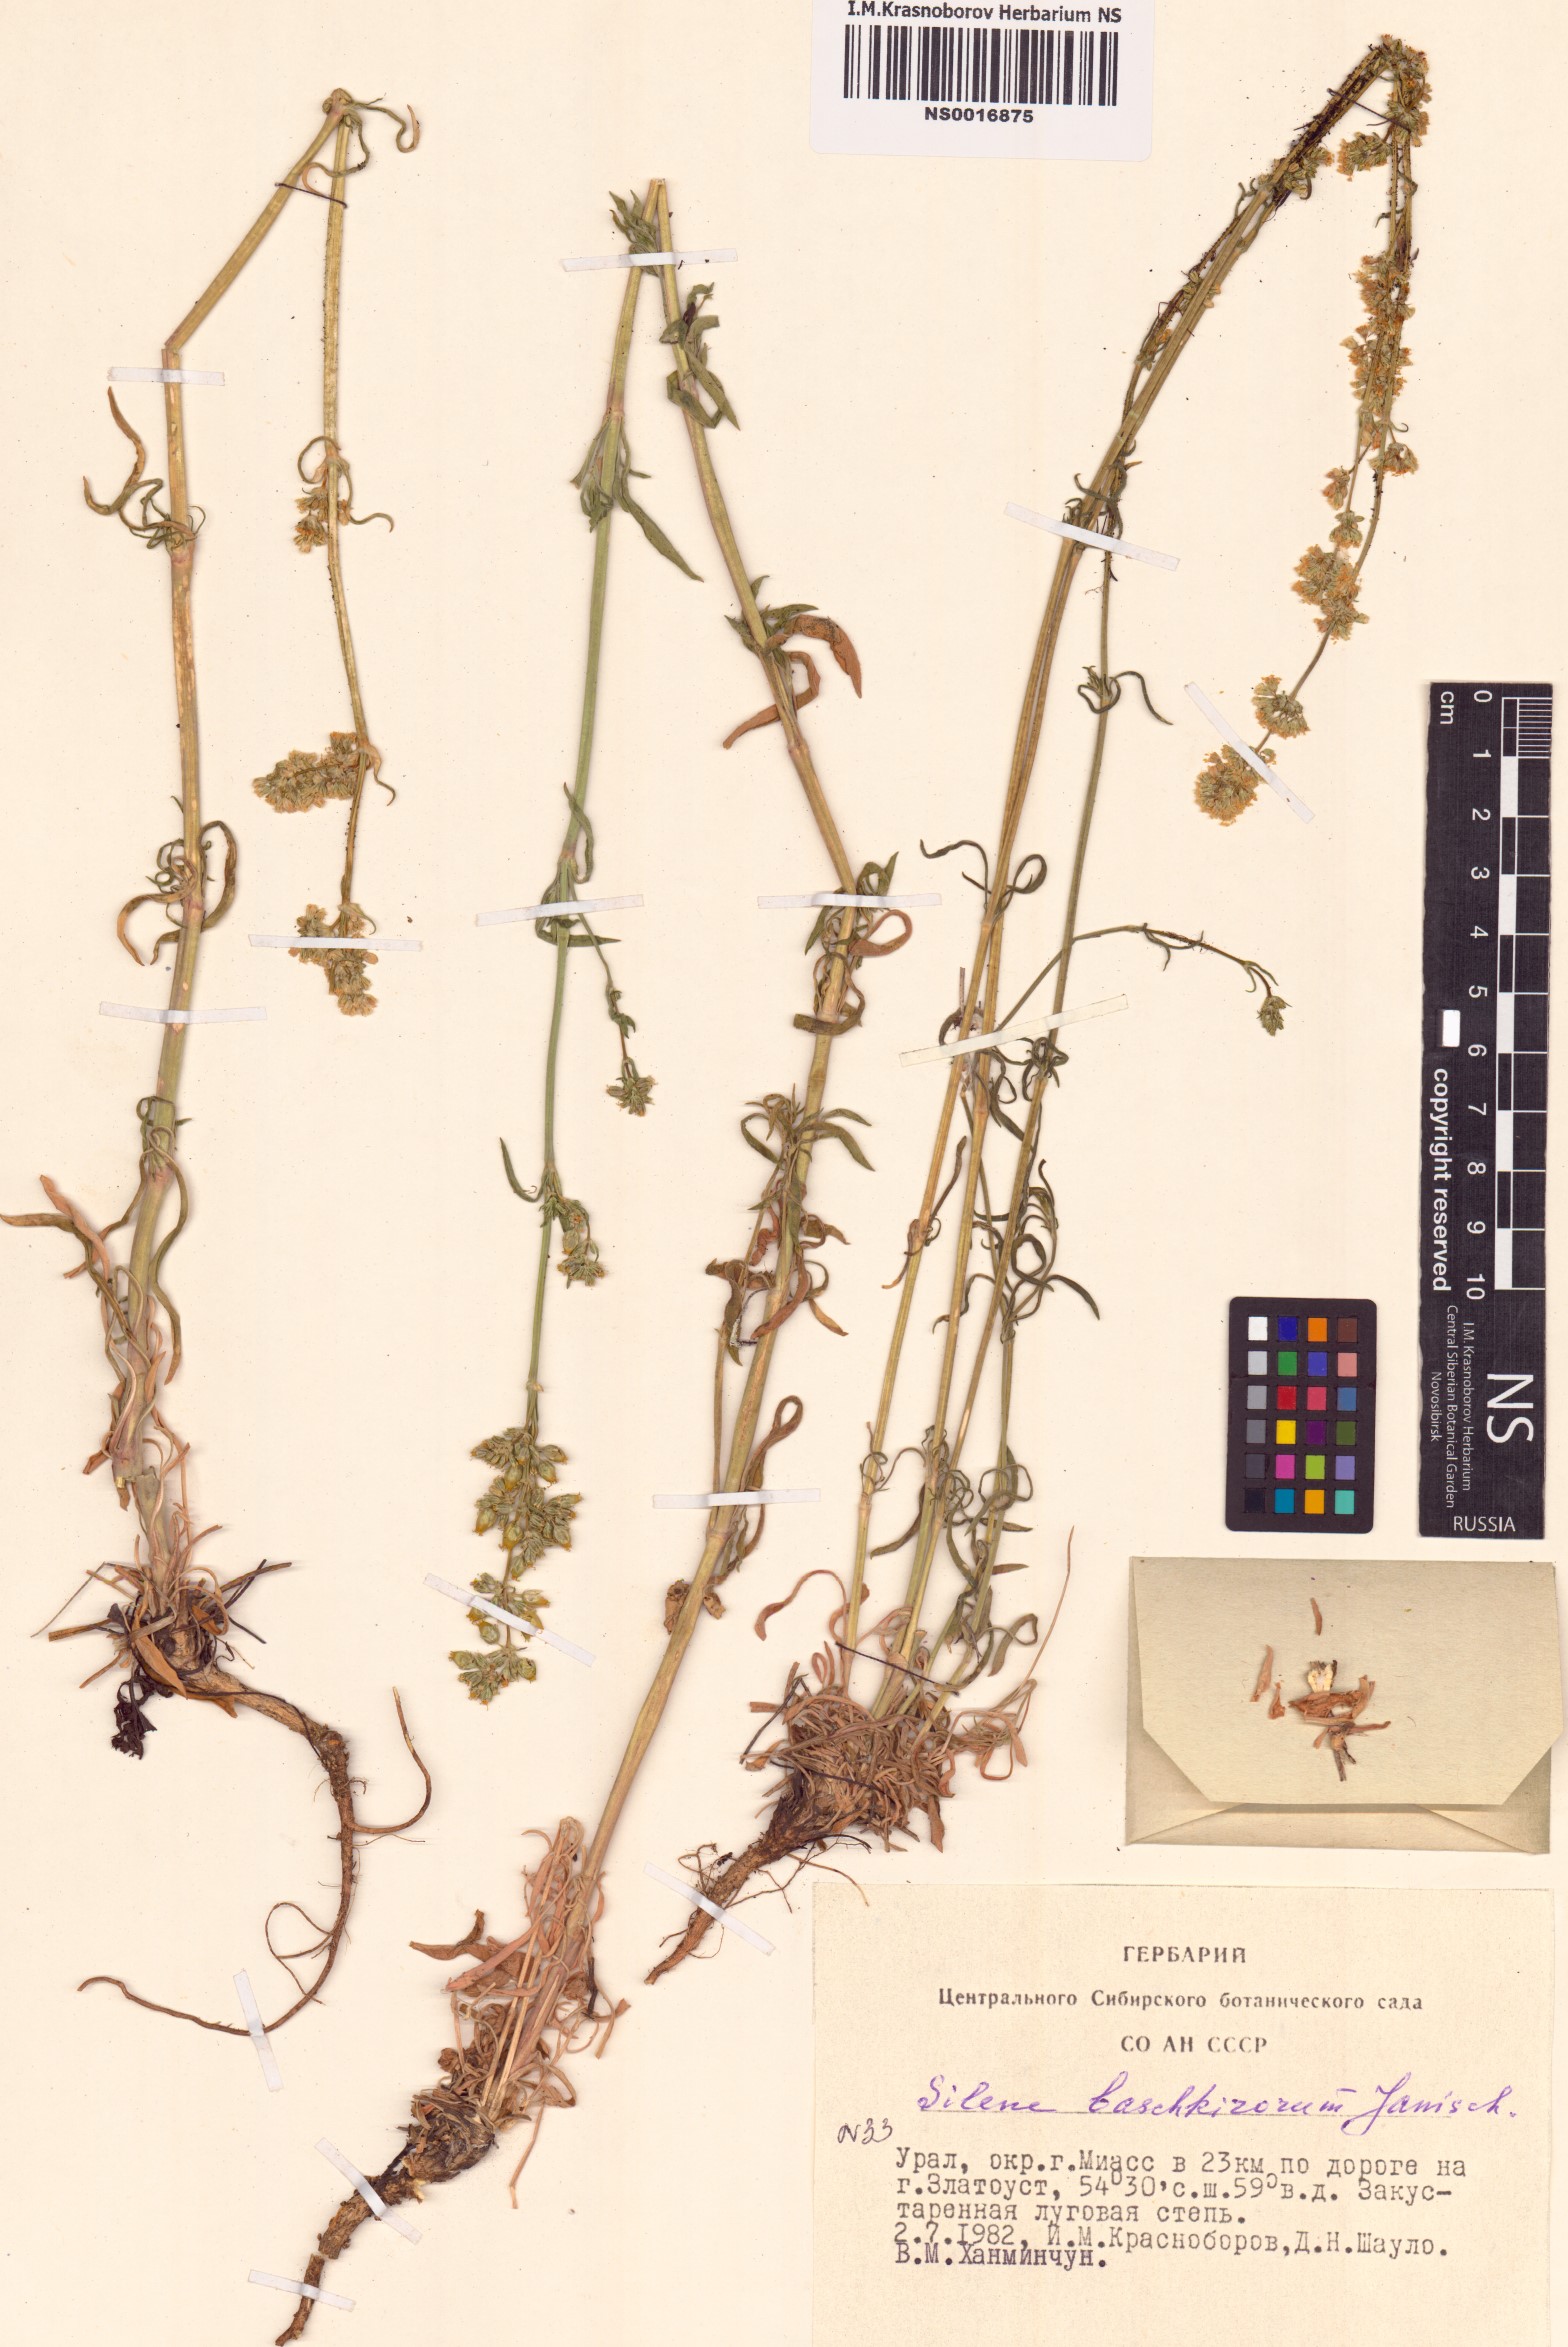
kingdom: Plantae
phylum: Tracheophyta
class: Magnoliopsida
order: Caryophyllales
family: Caryophyllaceae
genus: Silene
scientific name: Silene baschkirorum
